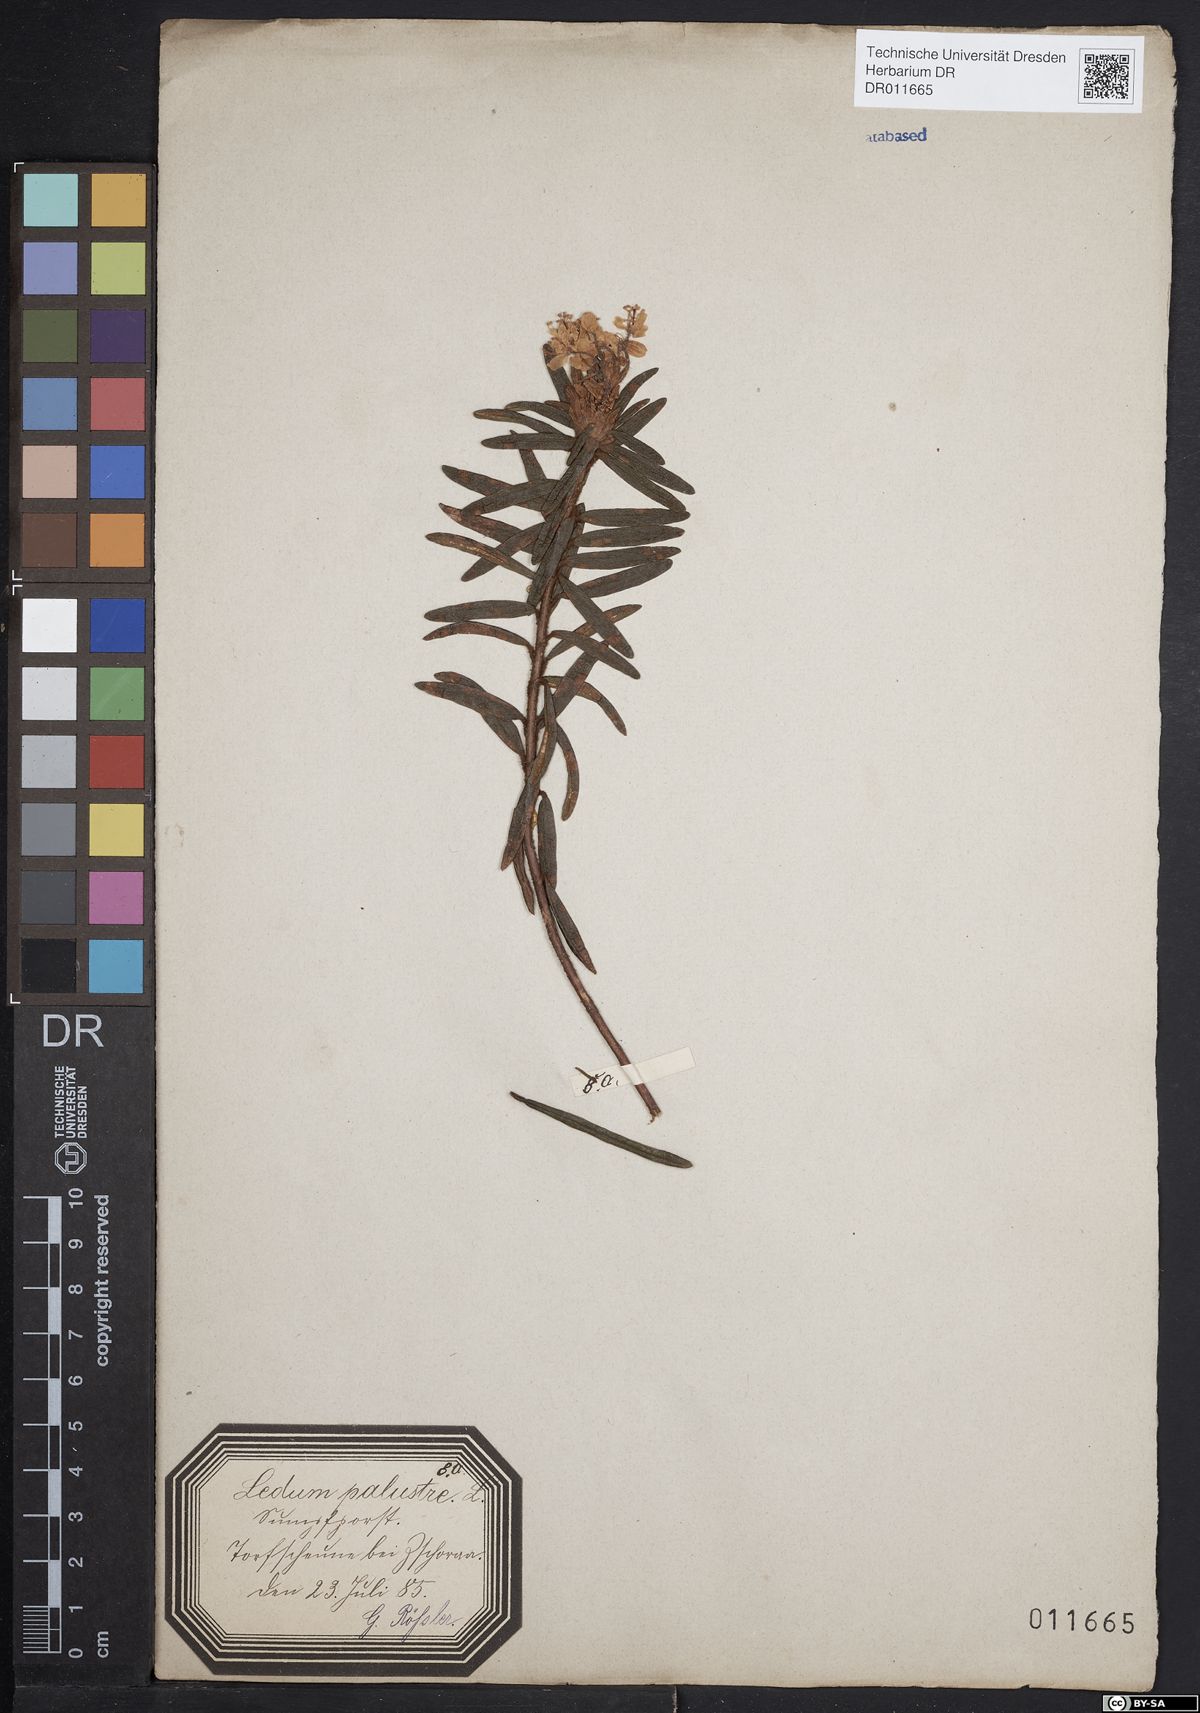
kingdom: Plantae
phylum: Tracheophyta
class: Magnoliopsida
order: Ericales
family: Ericaceae
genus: Rhododendron
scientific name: Rhododendron tomentosum
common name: Marsh labrador tea
